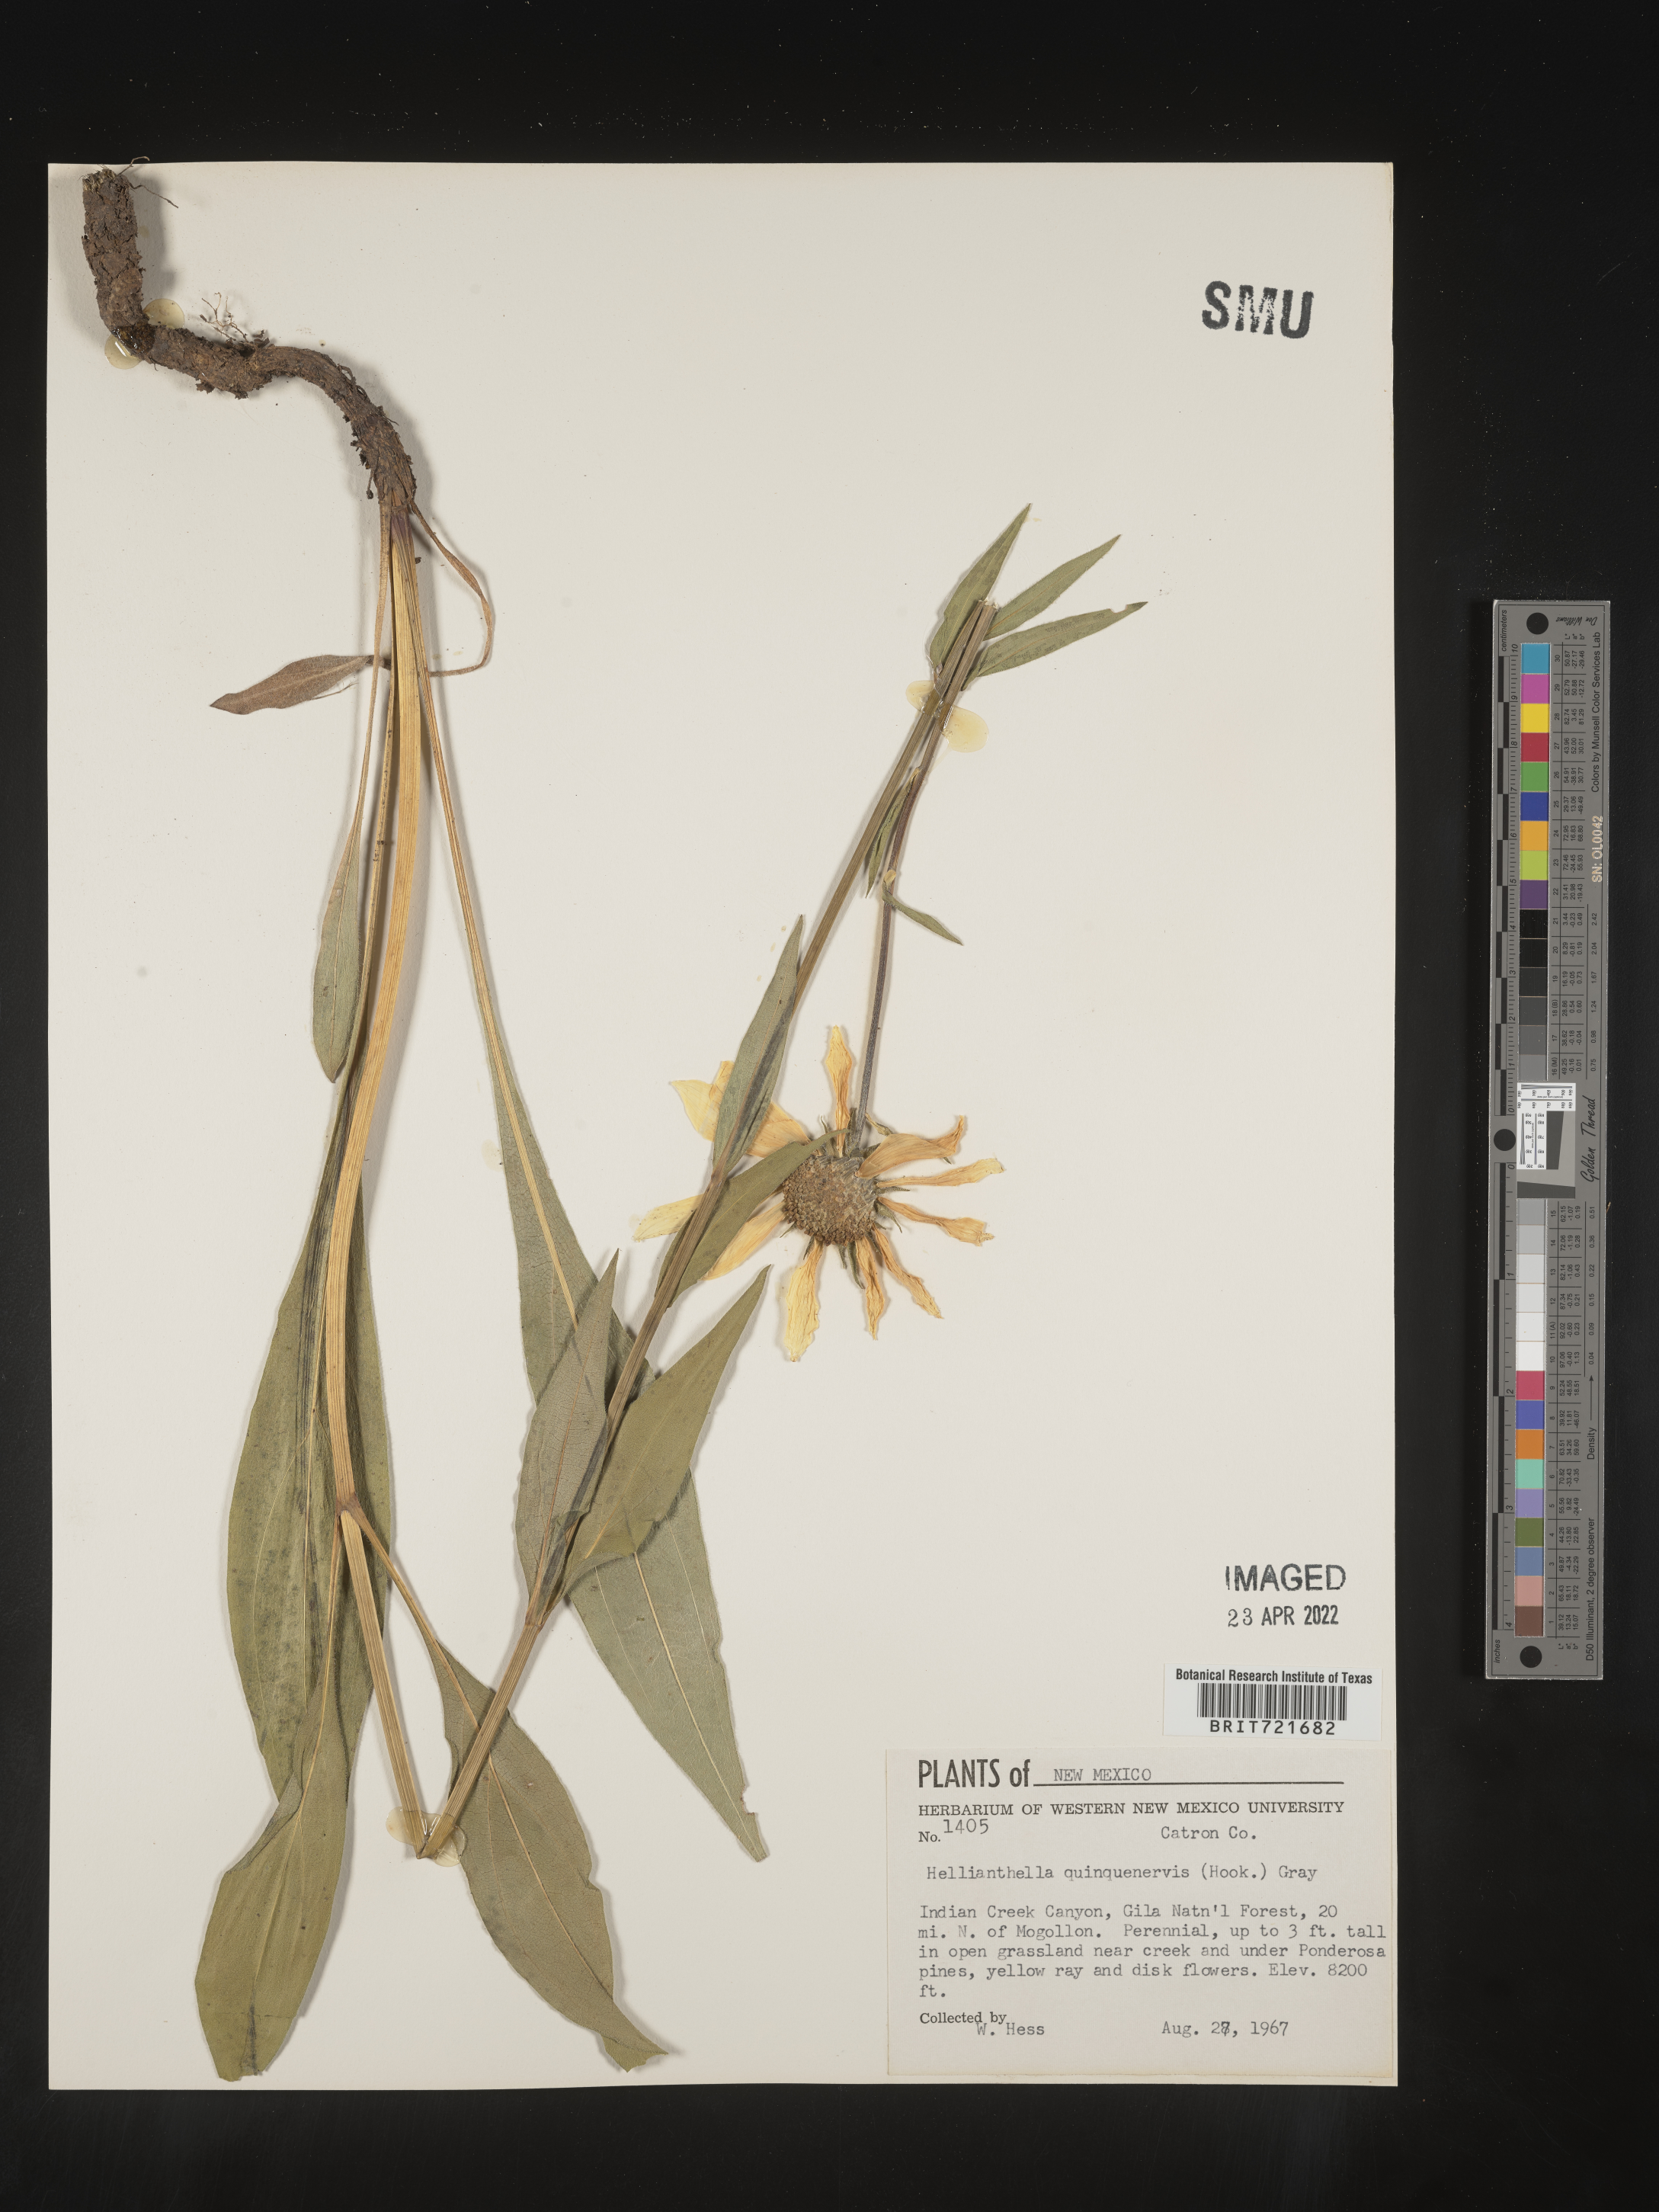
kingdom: Plantae
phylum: Tracheophyta
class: Magnoliopsida
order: Asterales
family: Asteraceae
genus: Helianthella
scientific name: Helianthella quinquenervis
